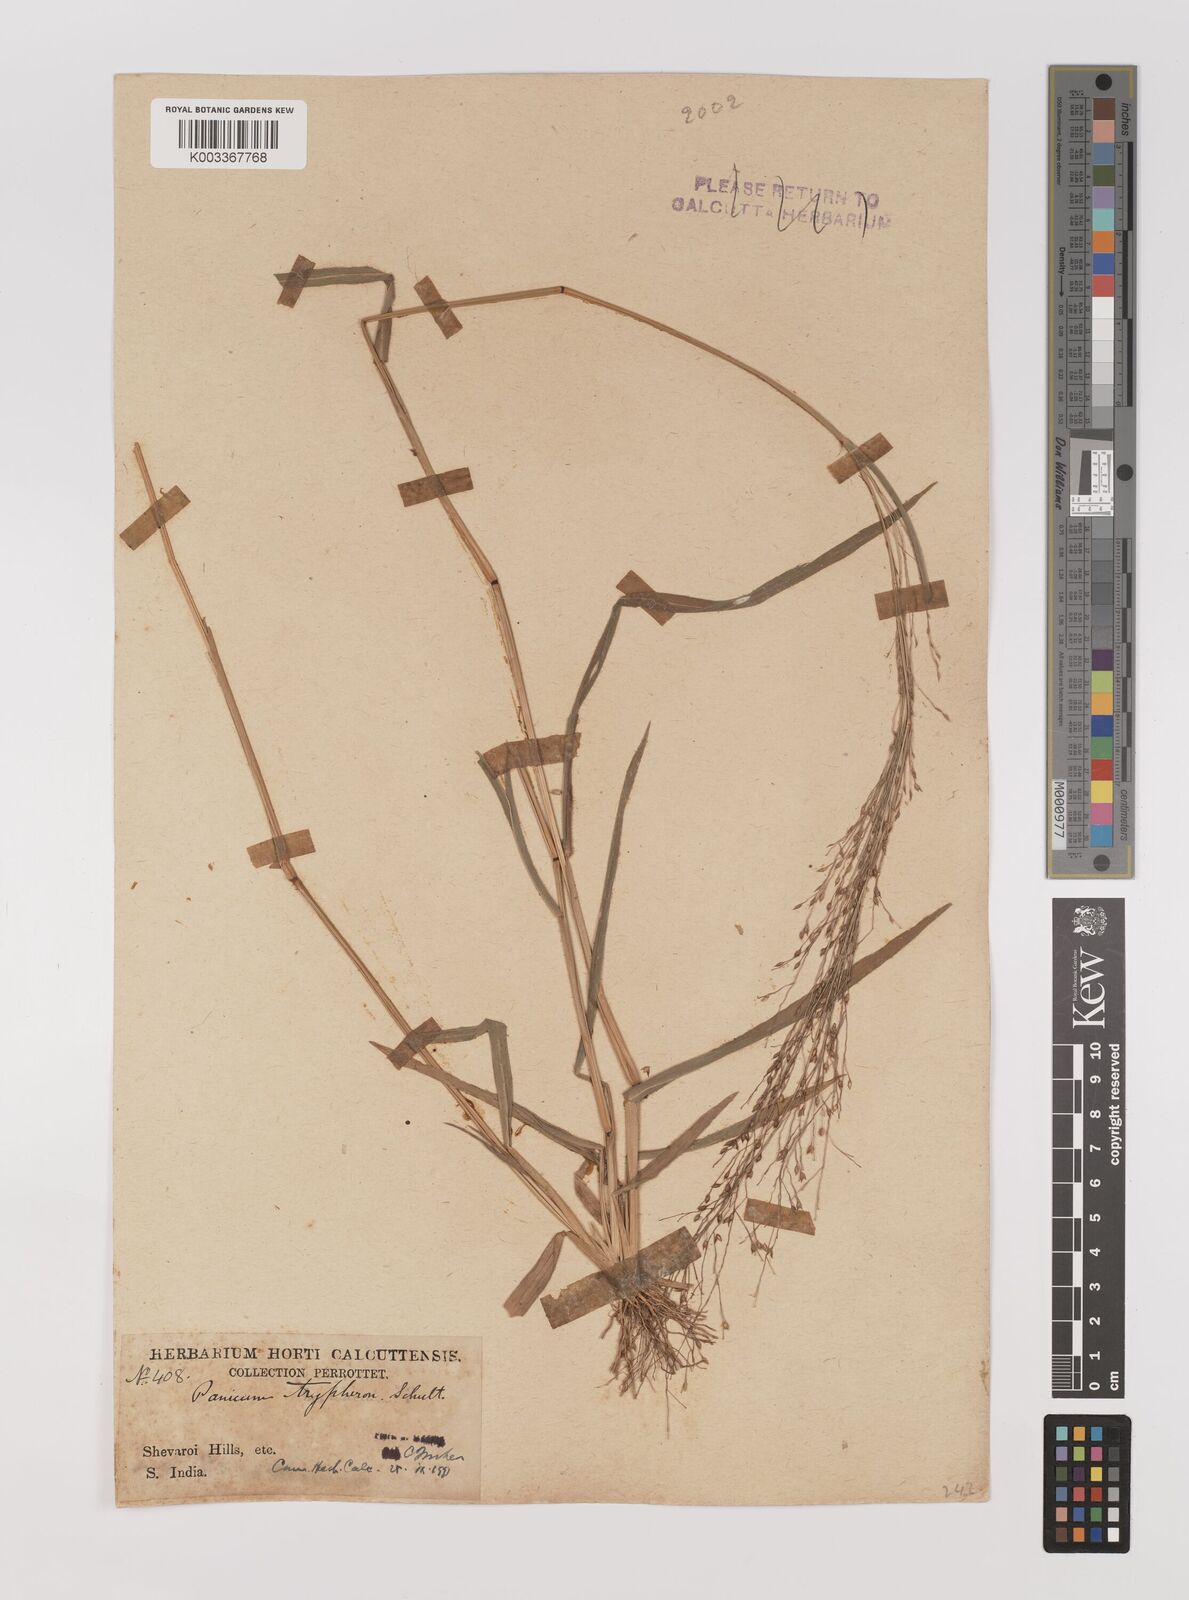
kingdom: Plantae
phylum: Tracheophyta
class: Liliopsida
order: Poales
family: Poaceae
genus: Panicum
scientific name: Panicum curviflorum
